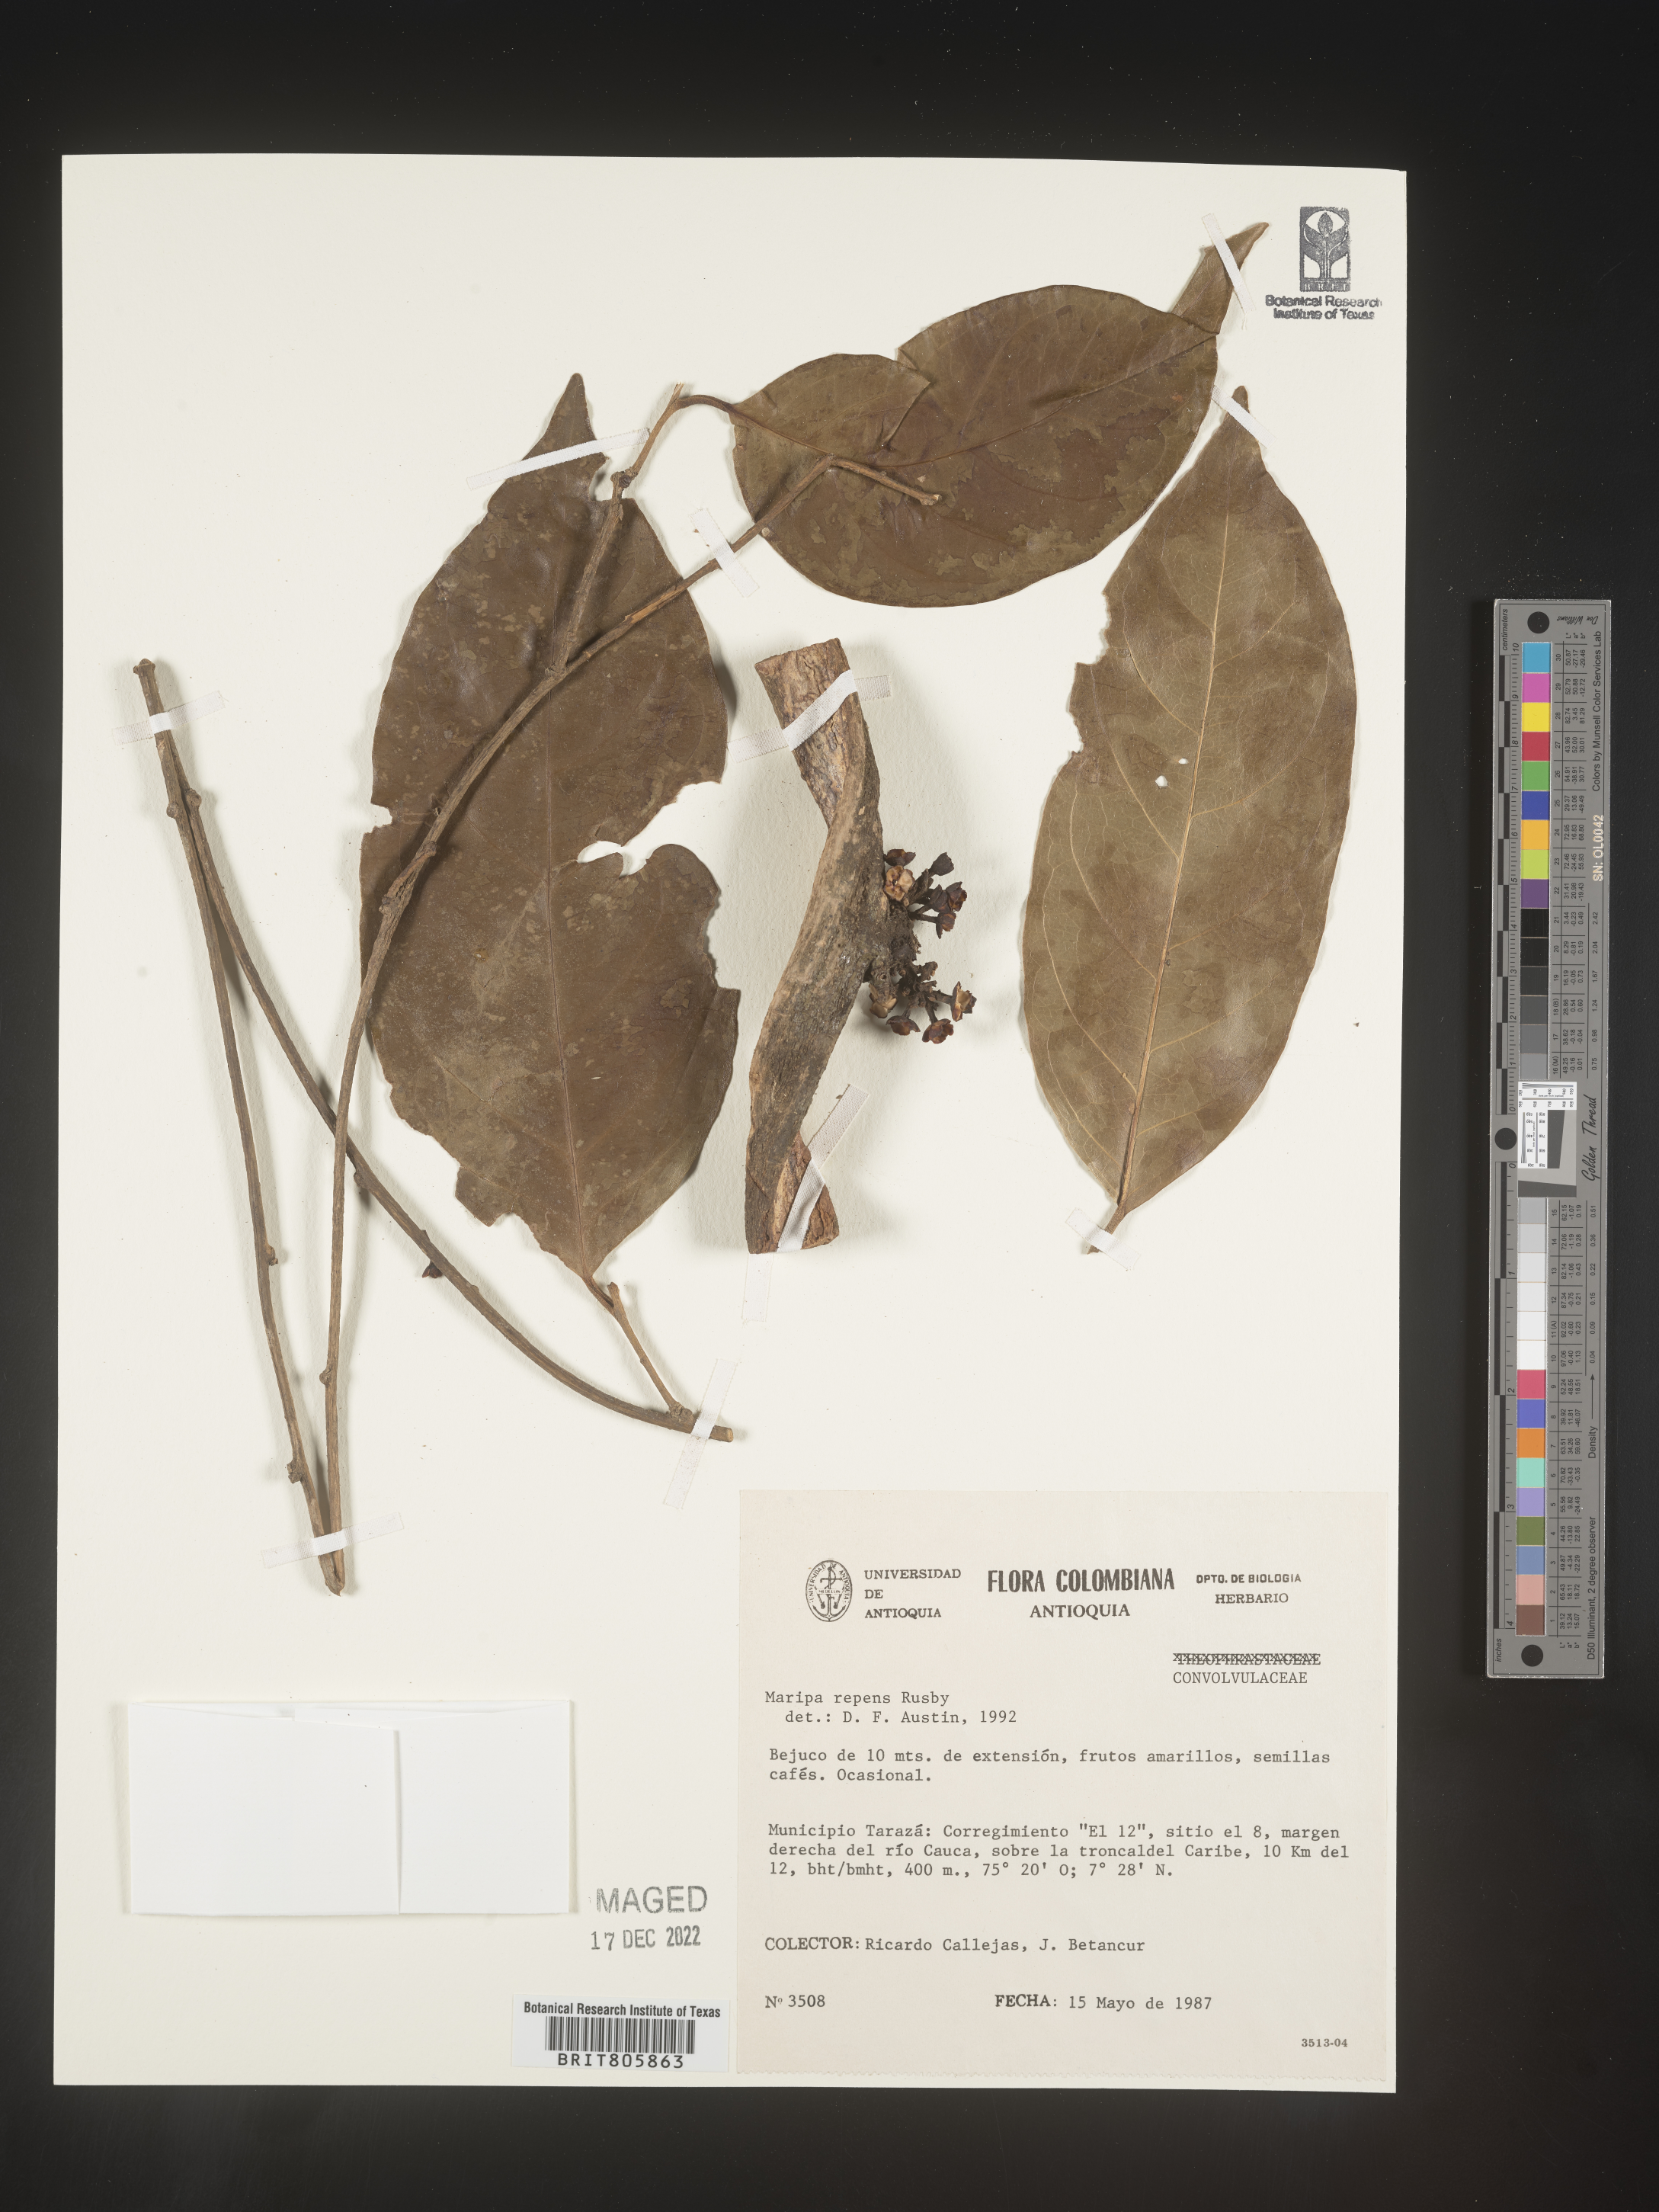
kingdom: Plantae
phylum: Tracheophyta
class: Magnoliopsida
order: Solanales
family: Convolvulaceae
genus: Maripa
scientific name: Maripa
